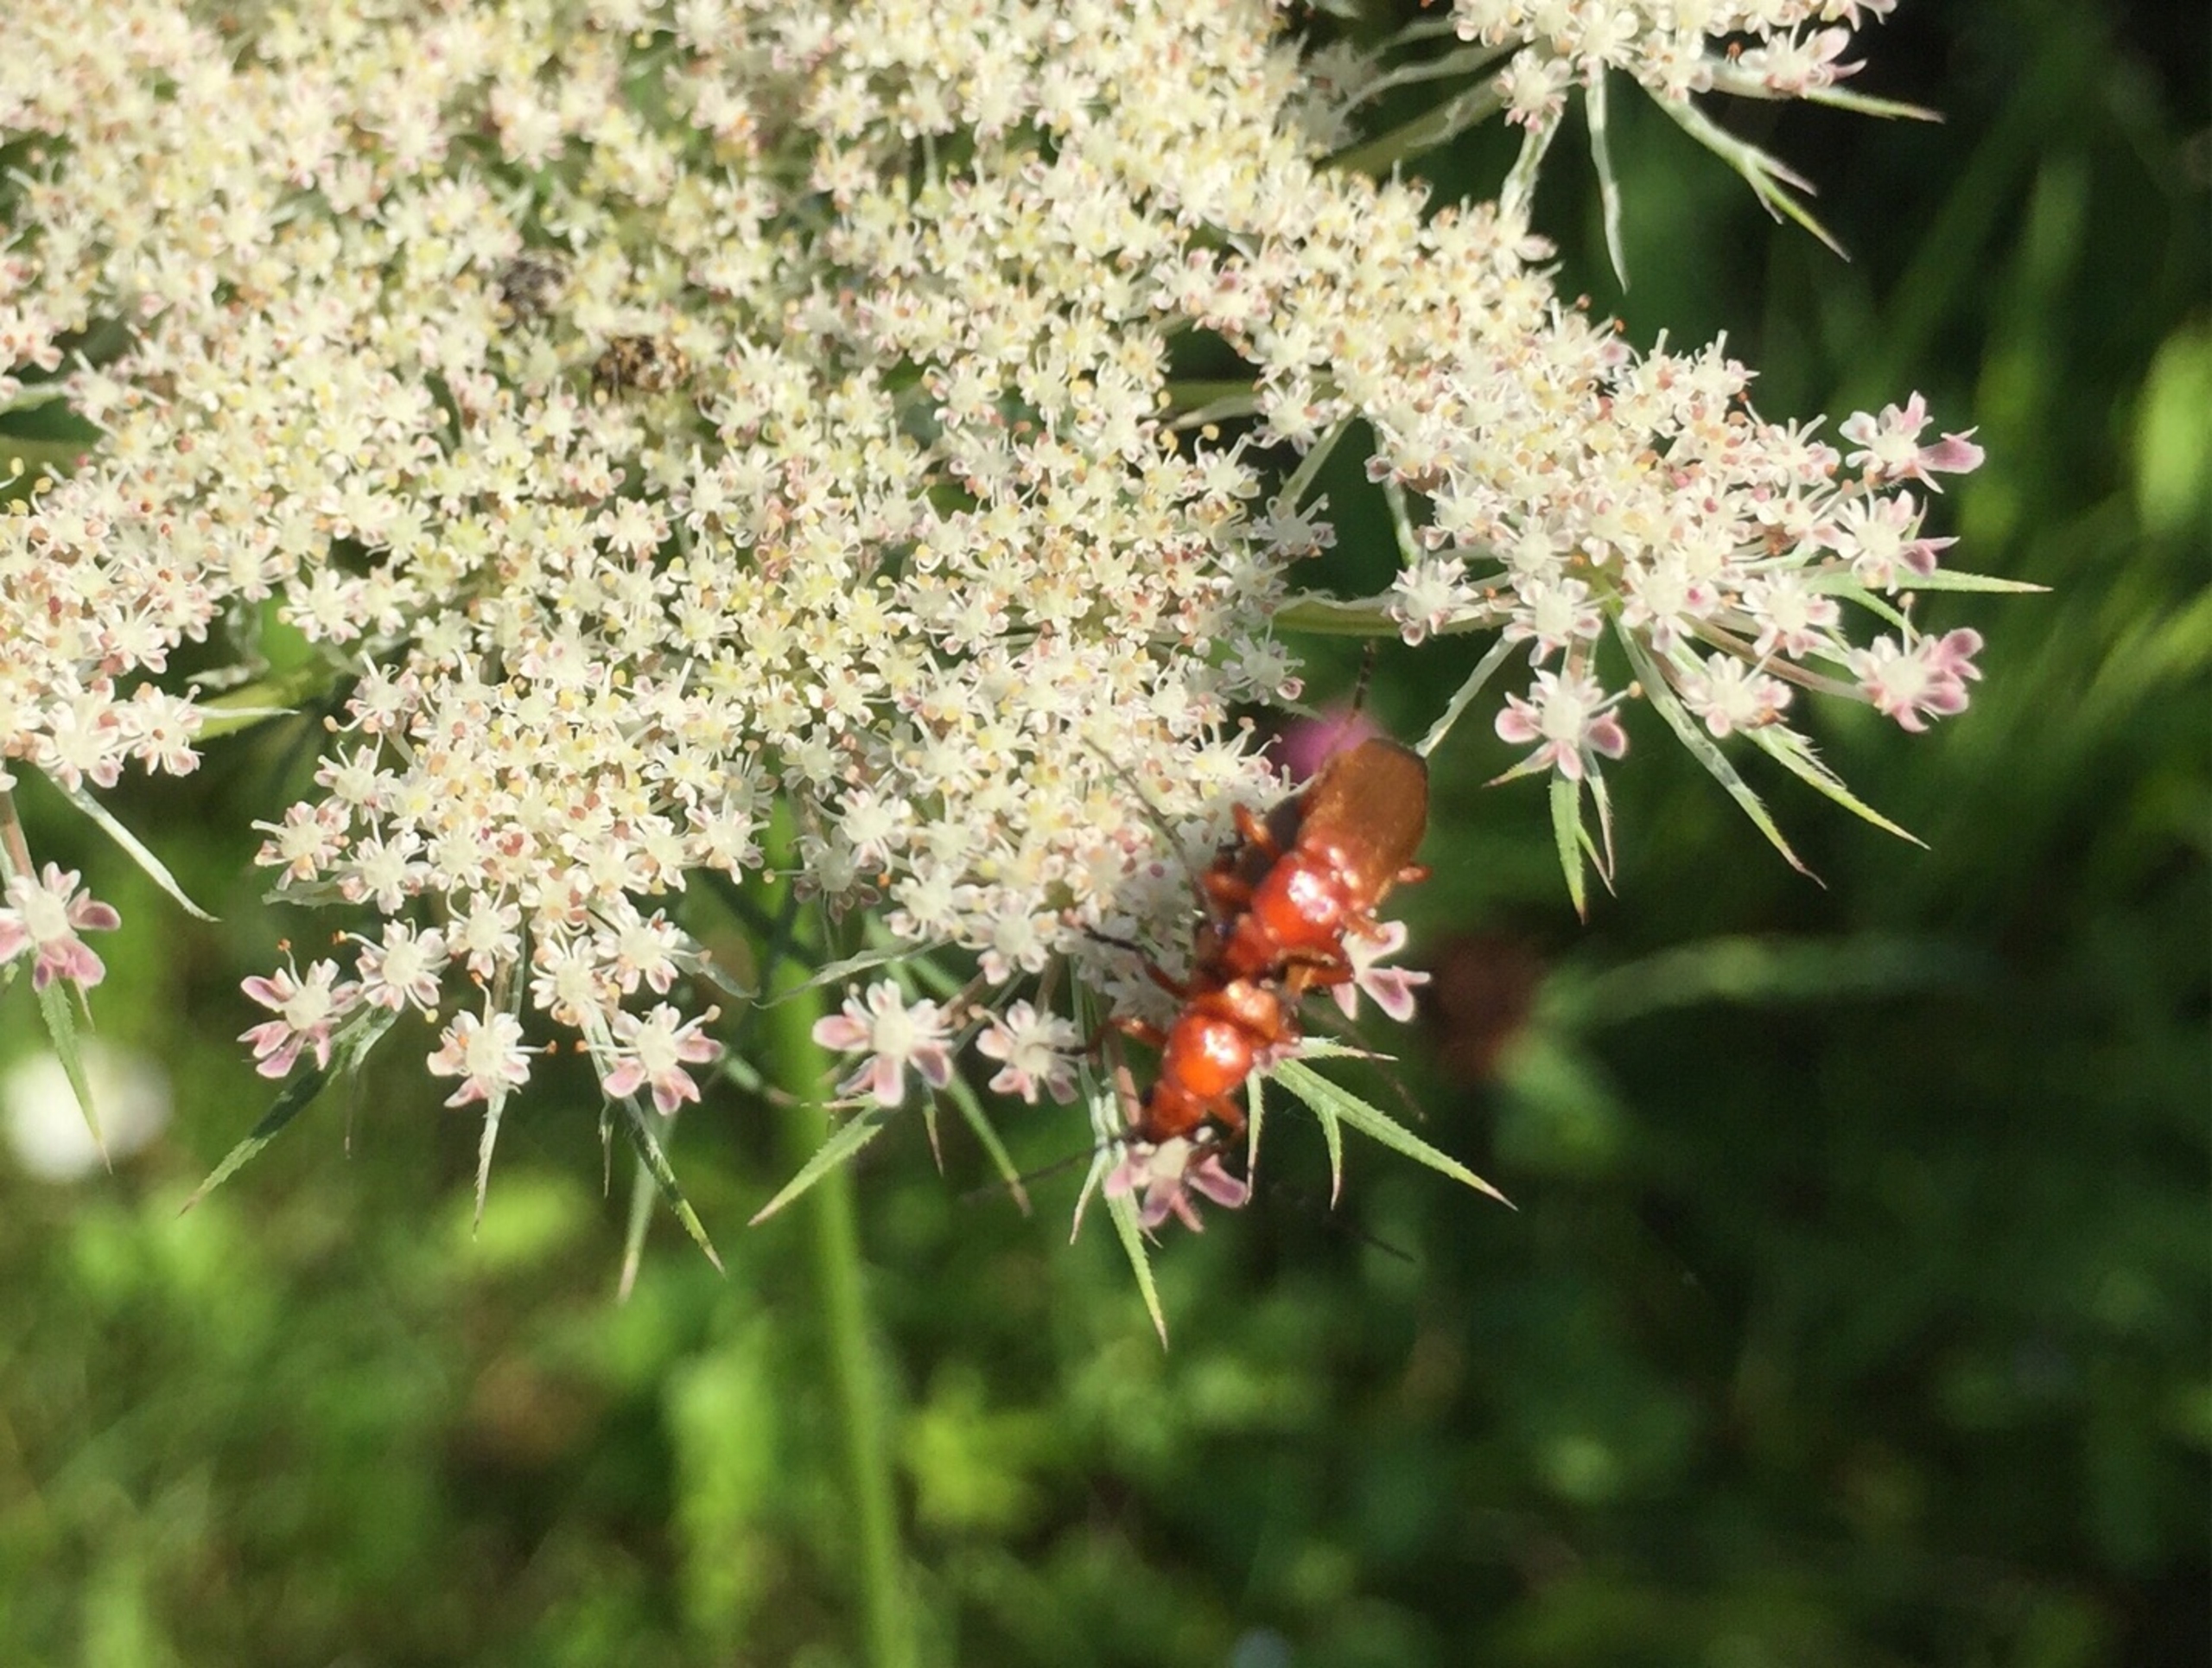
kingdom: Animalia
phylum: Arthropoda
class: Insecta
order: Coleoptera
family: Cantharidae
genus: Rhagonycha
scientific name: Rhagonycha fulva
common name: Præstebille
